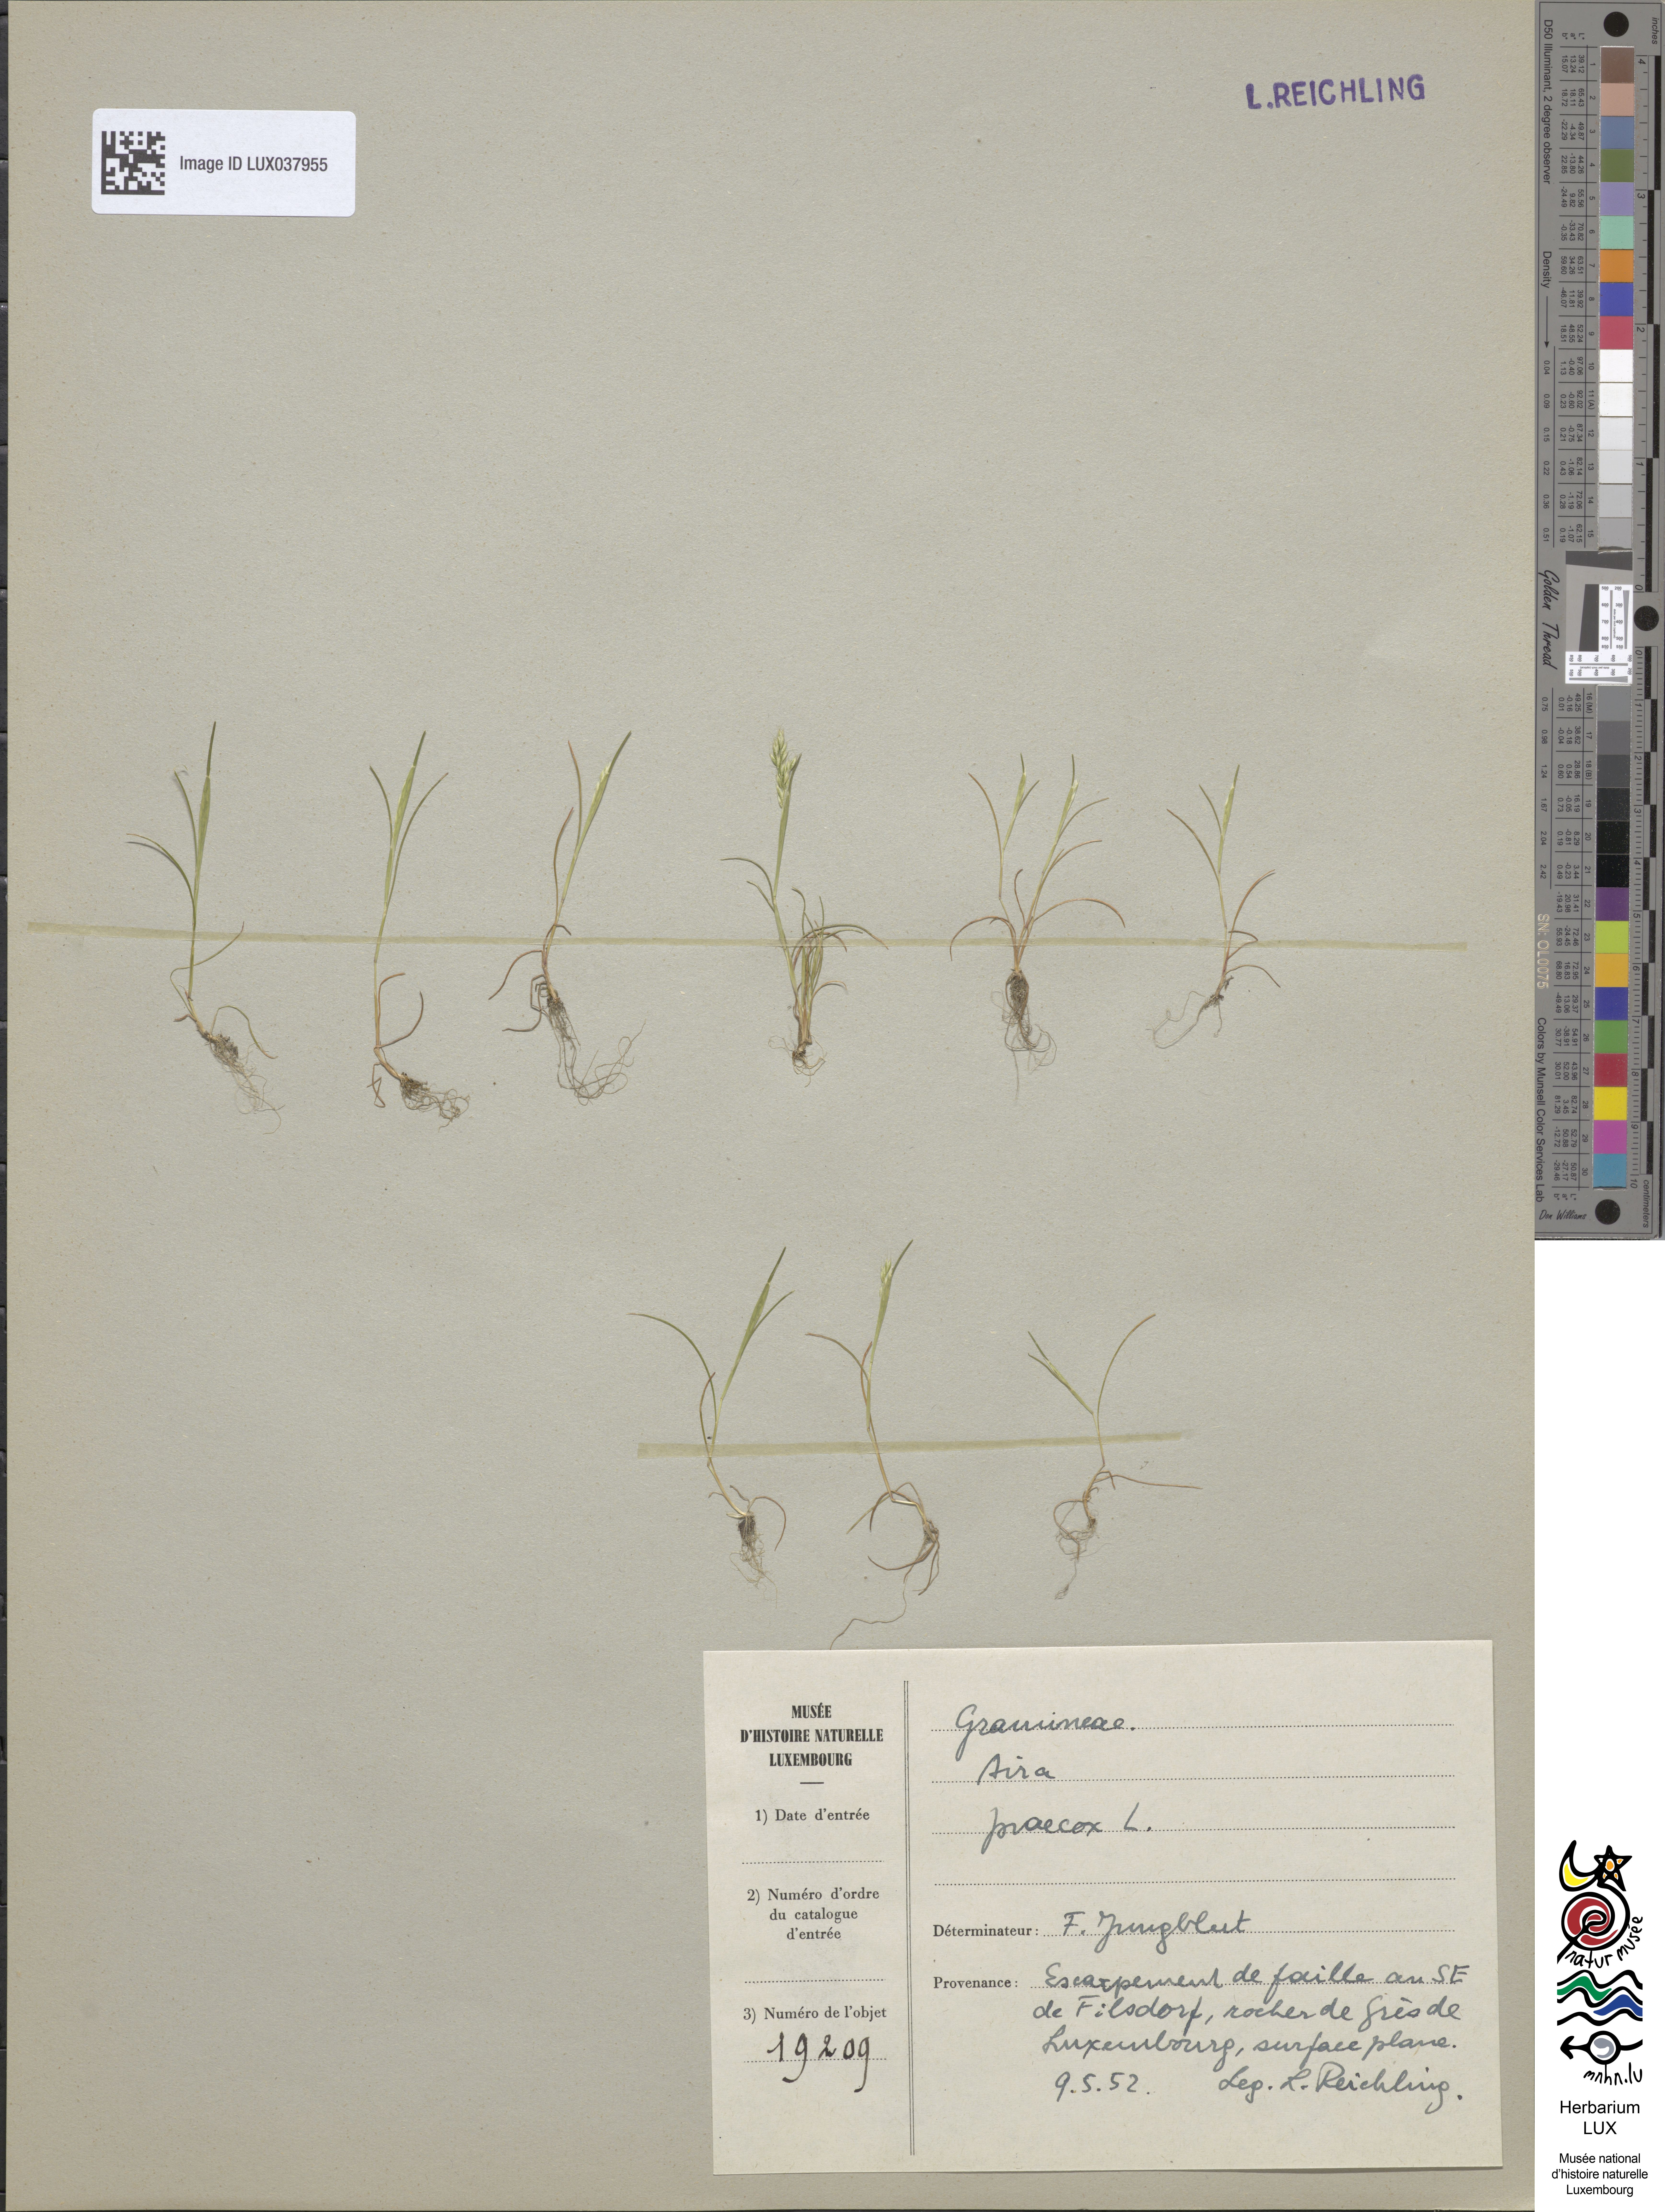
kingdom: Plantae
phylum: Tracheophyta
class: Liliopsida
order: Poales
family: Poaceae
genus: Aira
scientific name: Aira praecox
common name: Early hair-grass
